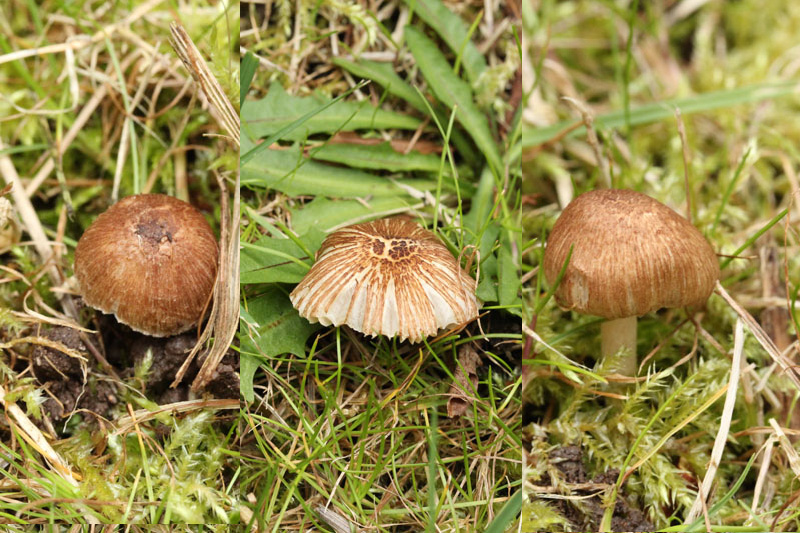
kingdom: Fungi
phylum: Basidiomycota
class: Agaricomycetes
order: Agaricales
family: Inocybaceae
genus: Inocybe
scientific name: Inocybe nitidiuscula
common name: skinnende trævlhat
